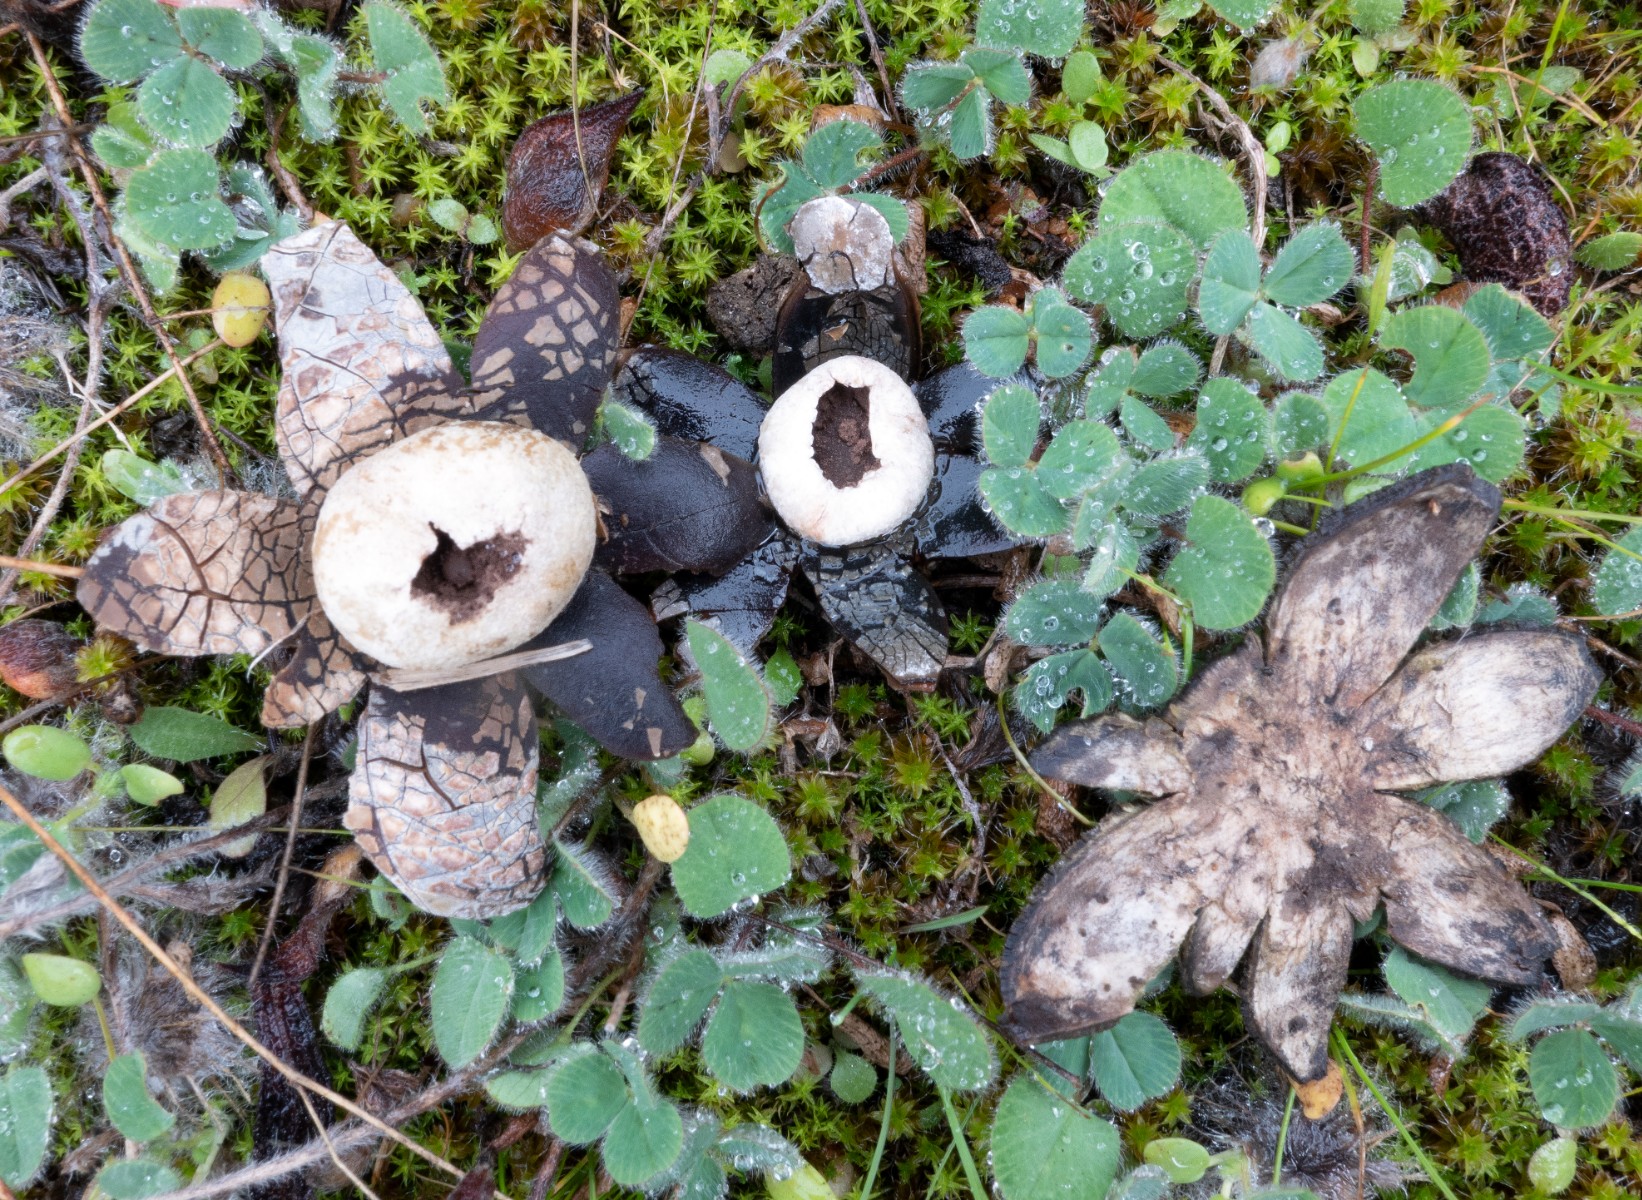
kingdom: Fungi
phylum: Basidiomycota
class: Agaricomycetes
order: Boletales
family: Diplocystidiaceae
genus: Astraeus
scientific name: Astraeus
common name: hygrometerstjerne
